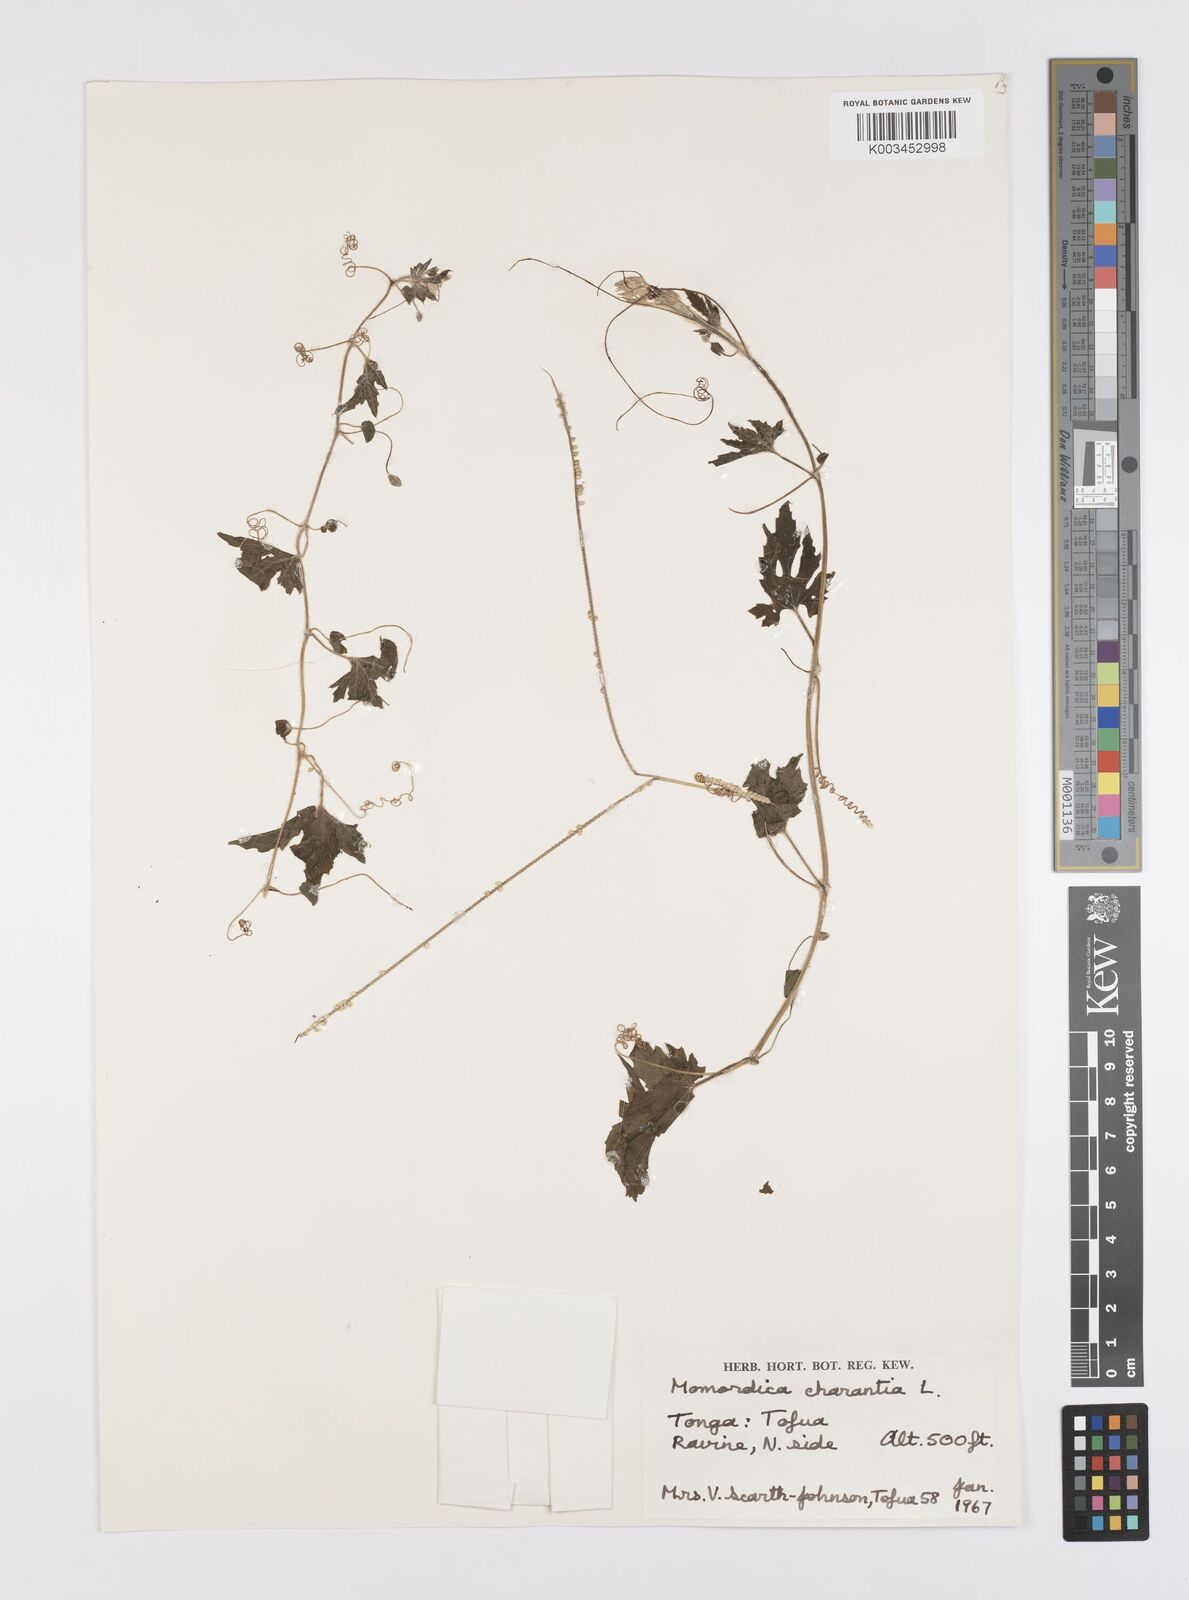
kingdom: Plantae
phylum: Tracheophyta
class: Magnoliopsida
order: Cucurbitales
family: Cucurbitaceae
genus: Momordica
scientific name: Momordica charantia
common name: Balsampear
